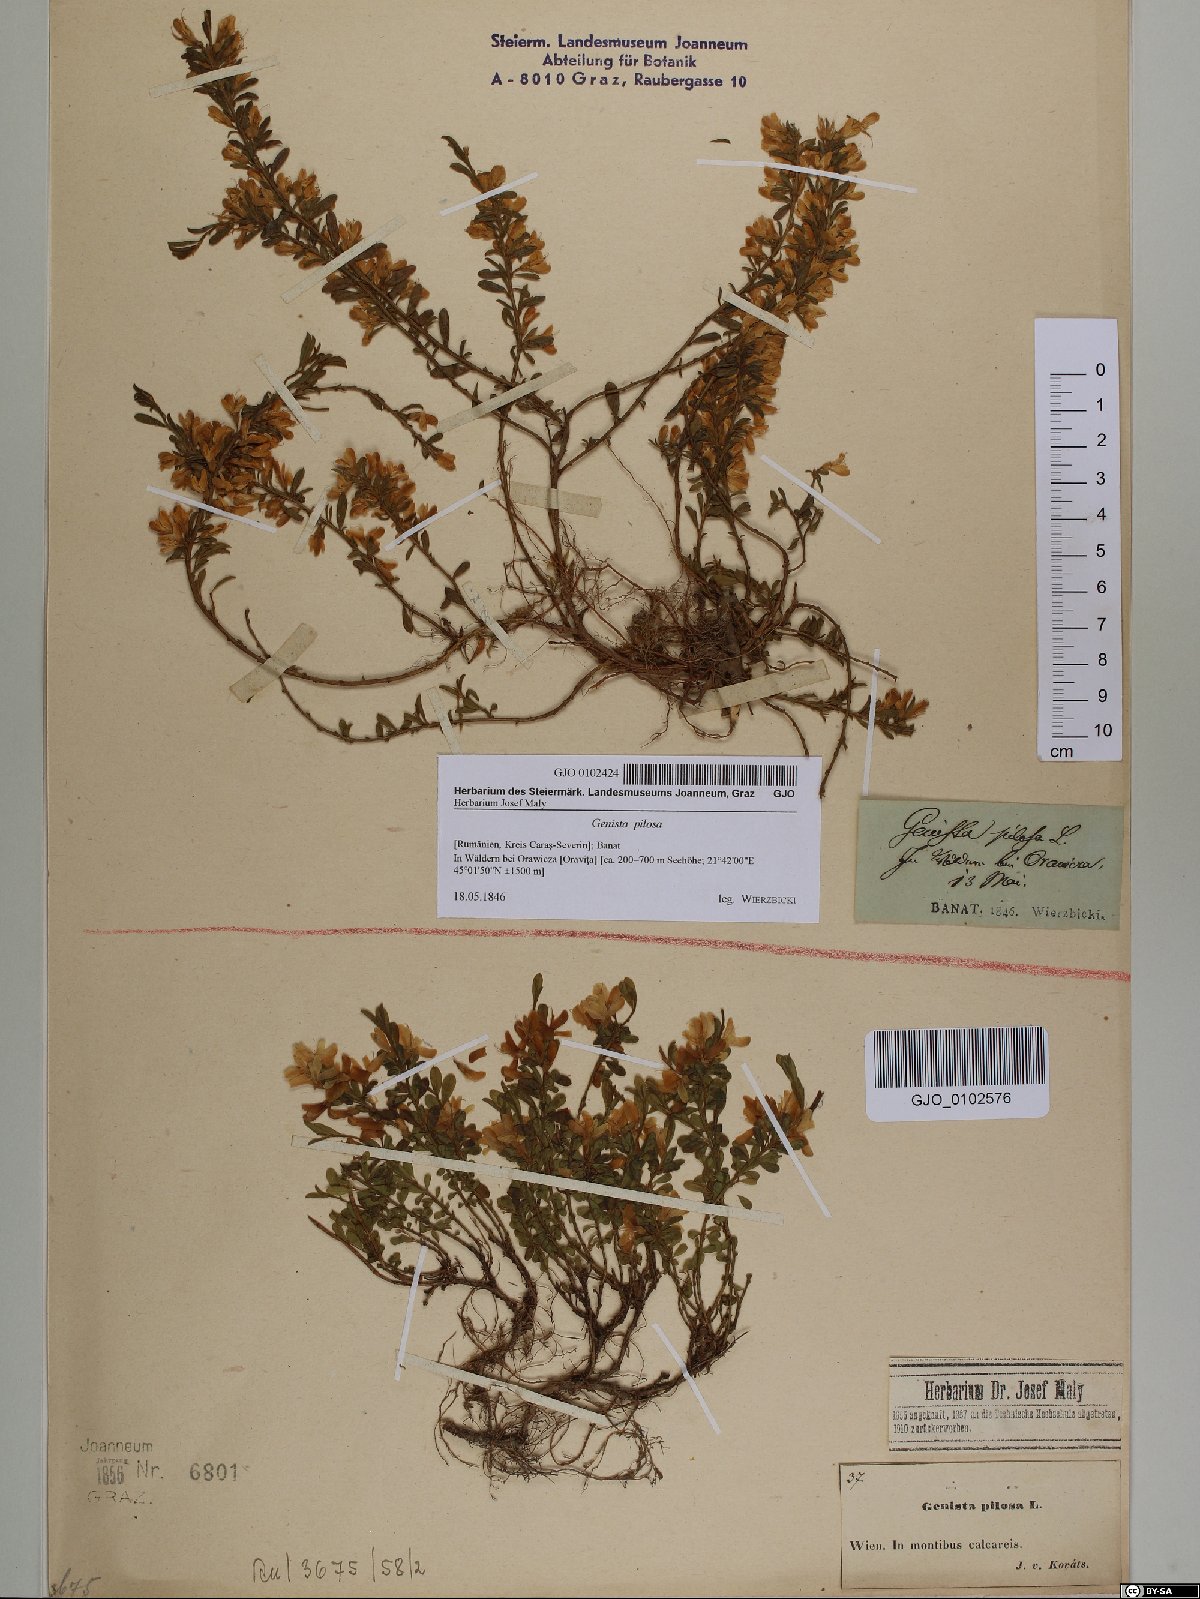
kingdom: Plantae
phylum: Tracheophyta
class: Magnoliopsida
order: Fabales
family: Fabaceae
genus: Genista
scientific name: Genista pilosa
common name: Hairy greenweed
